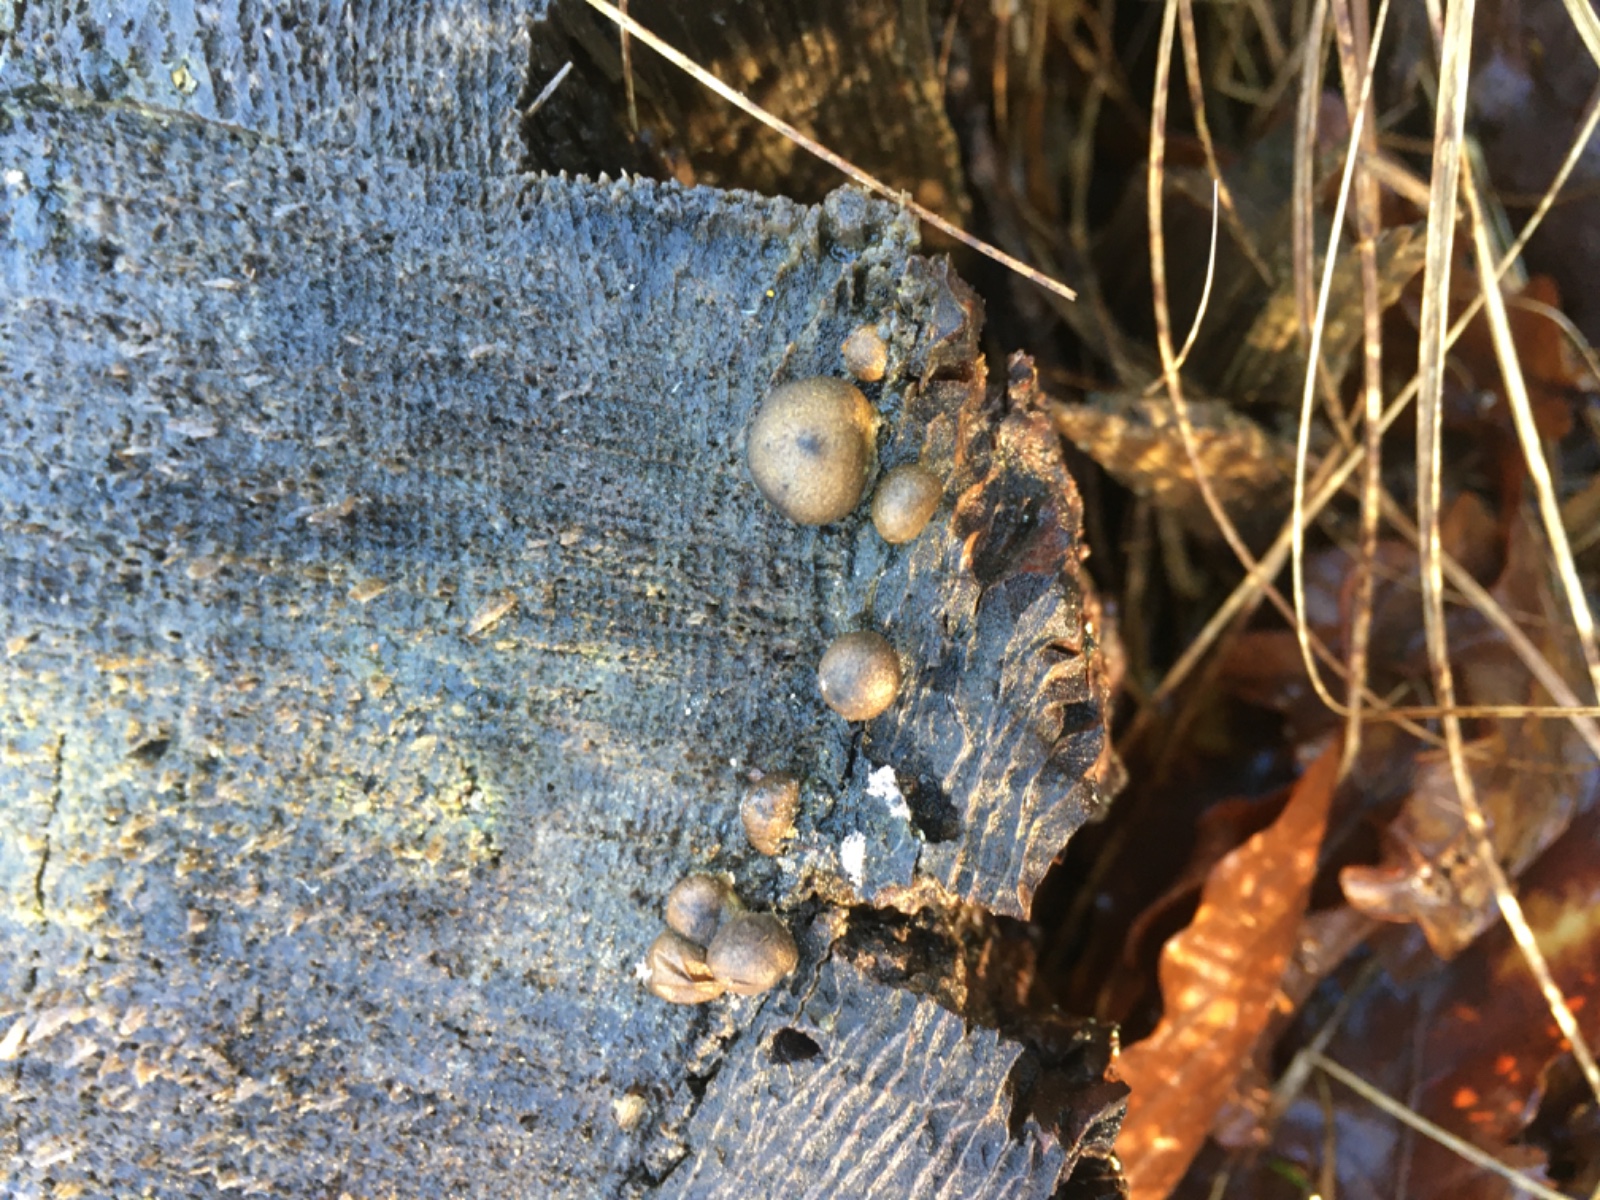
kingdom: Protozoa
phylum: Mycetozoa
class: Myxomycetes
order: Cribrariales
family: Tubiferaceae
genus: Lycogala
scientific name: Lycogala epidendrum
